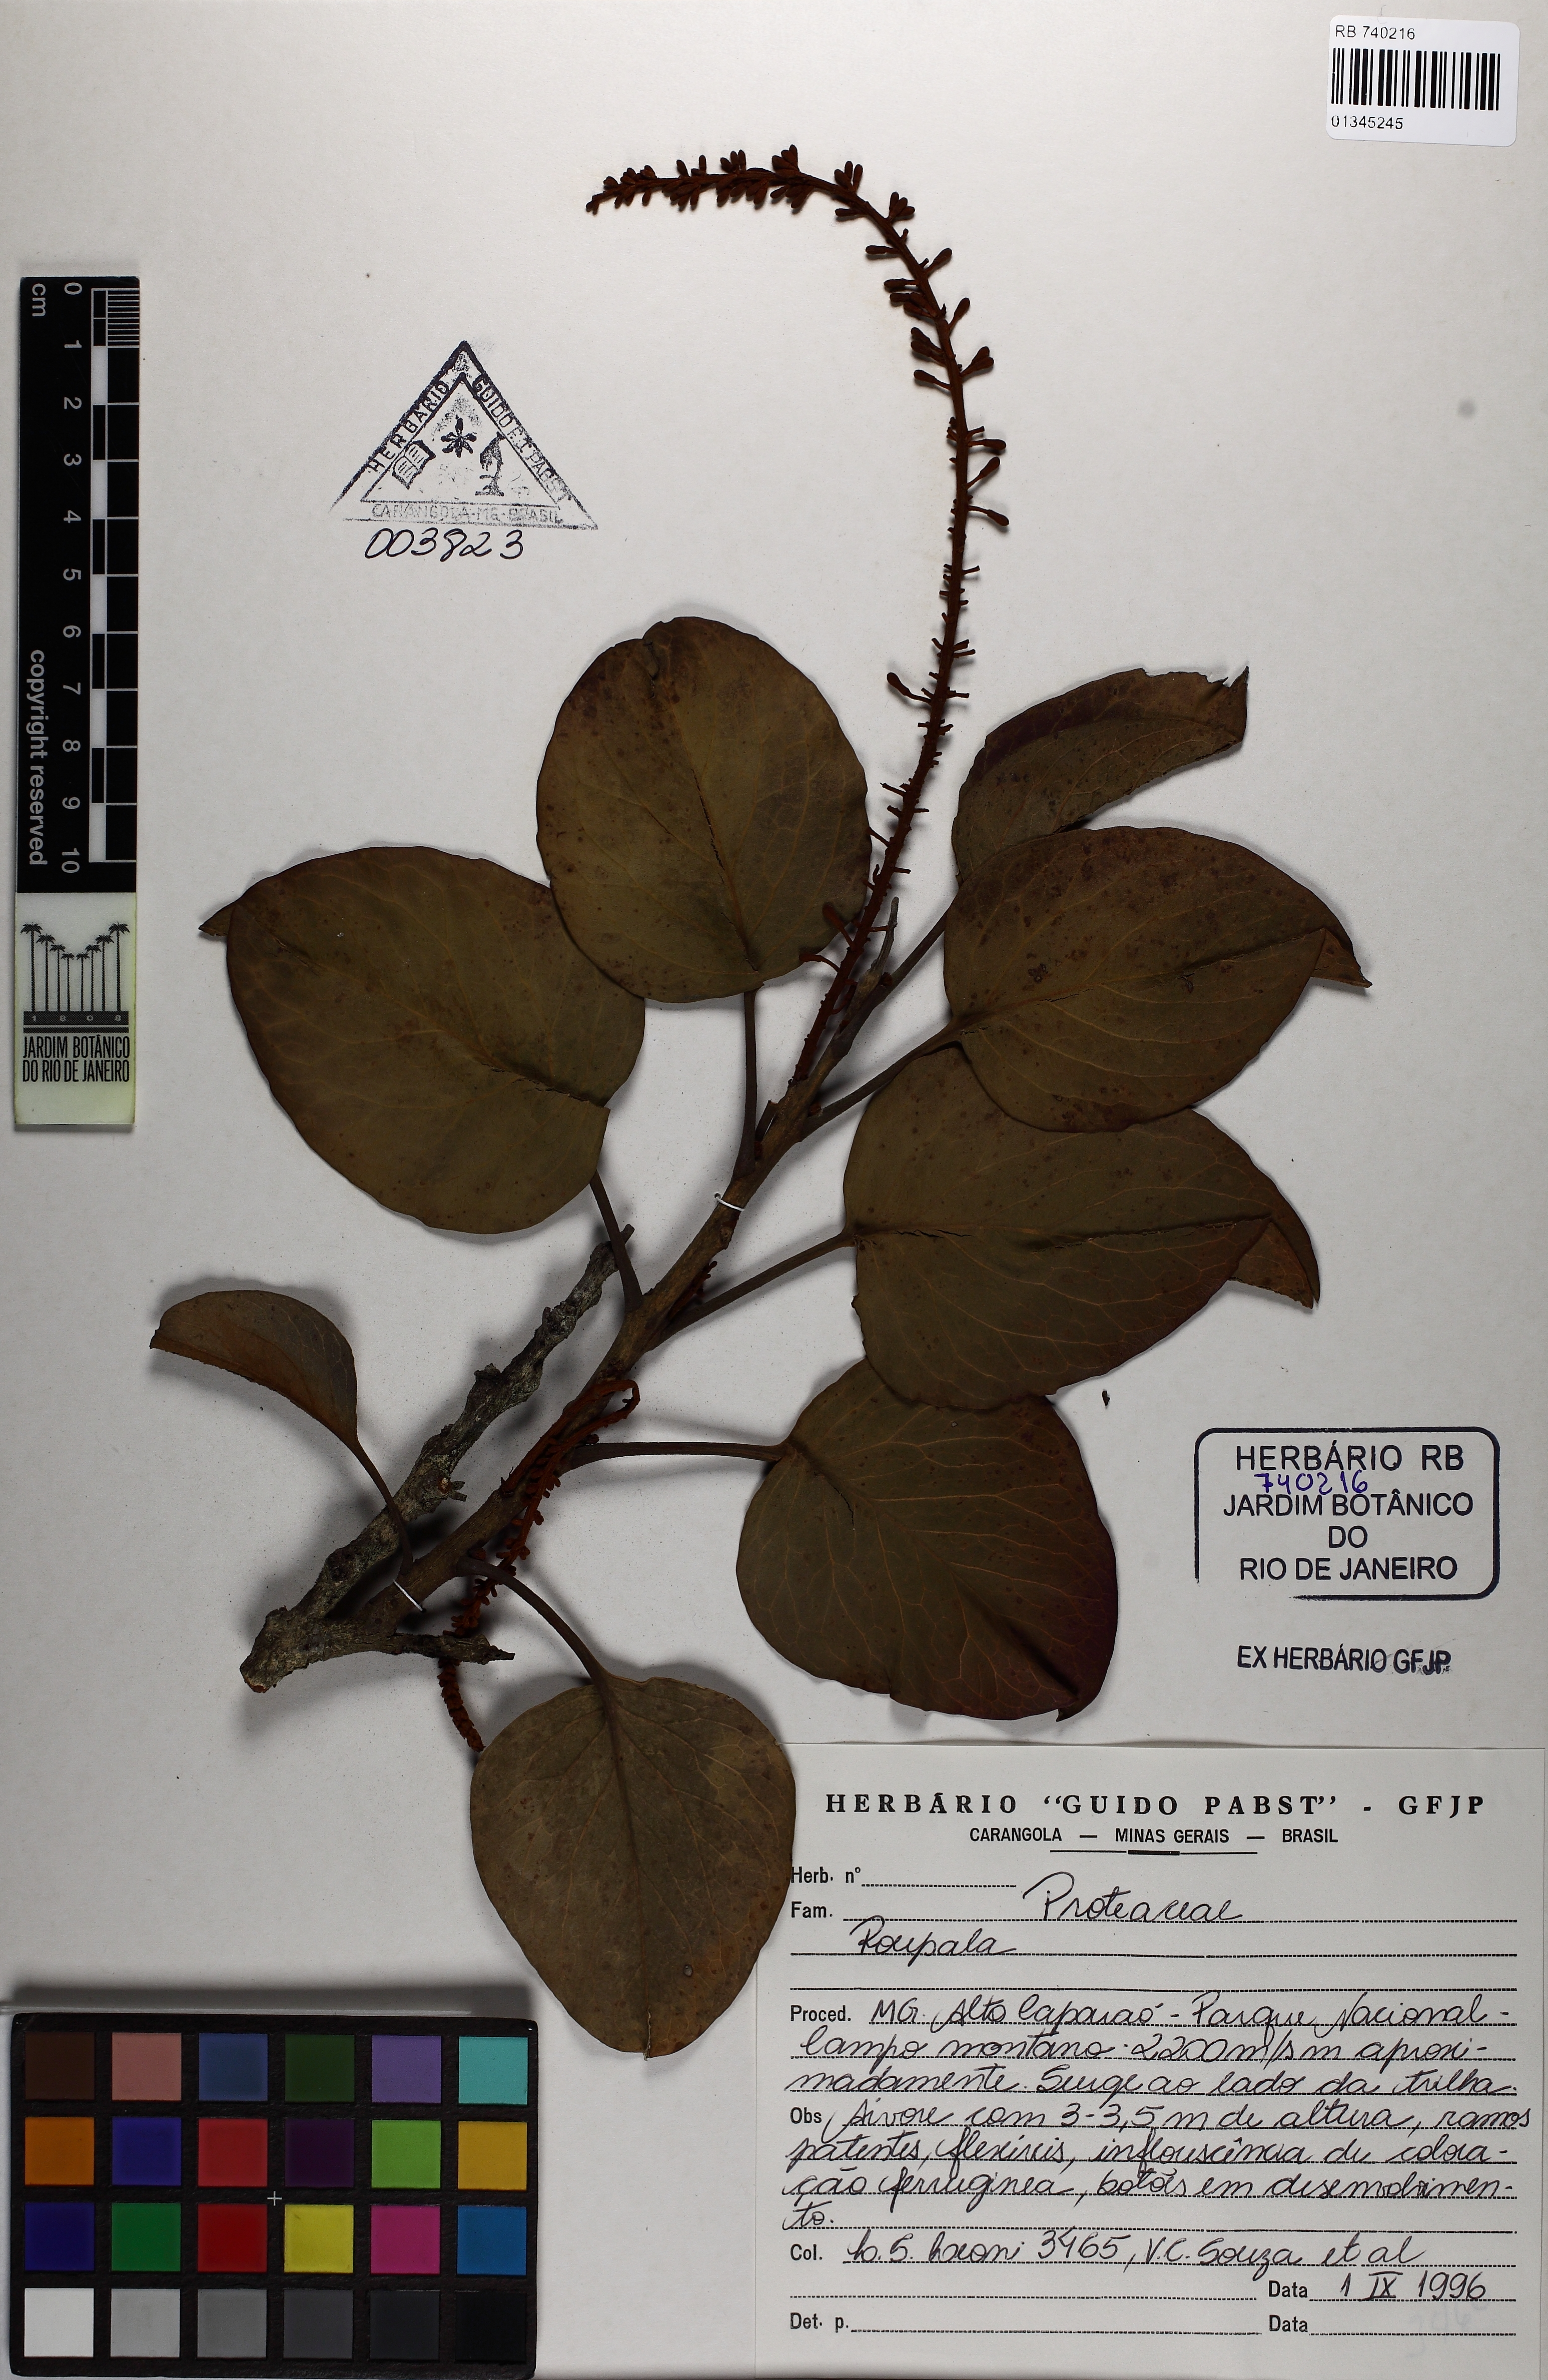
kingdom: Plantae
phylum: Tracheophyta
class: Magnoliopsida
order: Proteales
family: Proteaceae
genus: Roupala
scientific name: Roupala
